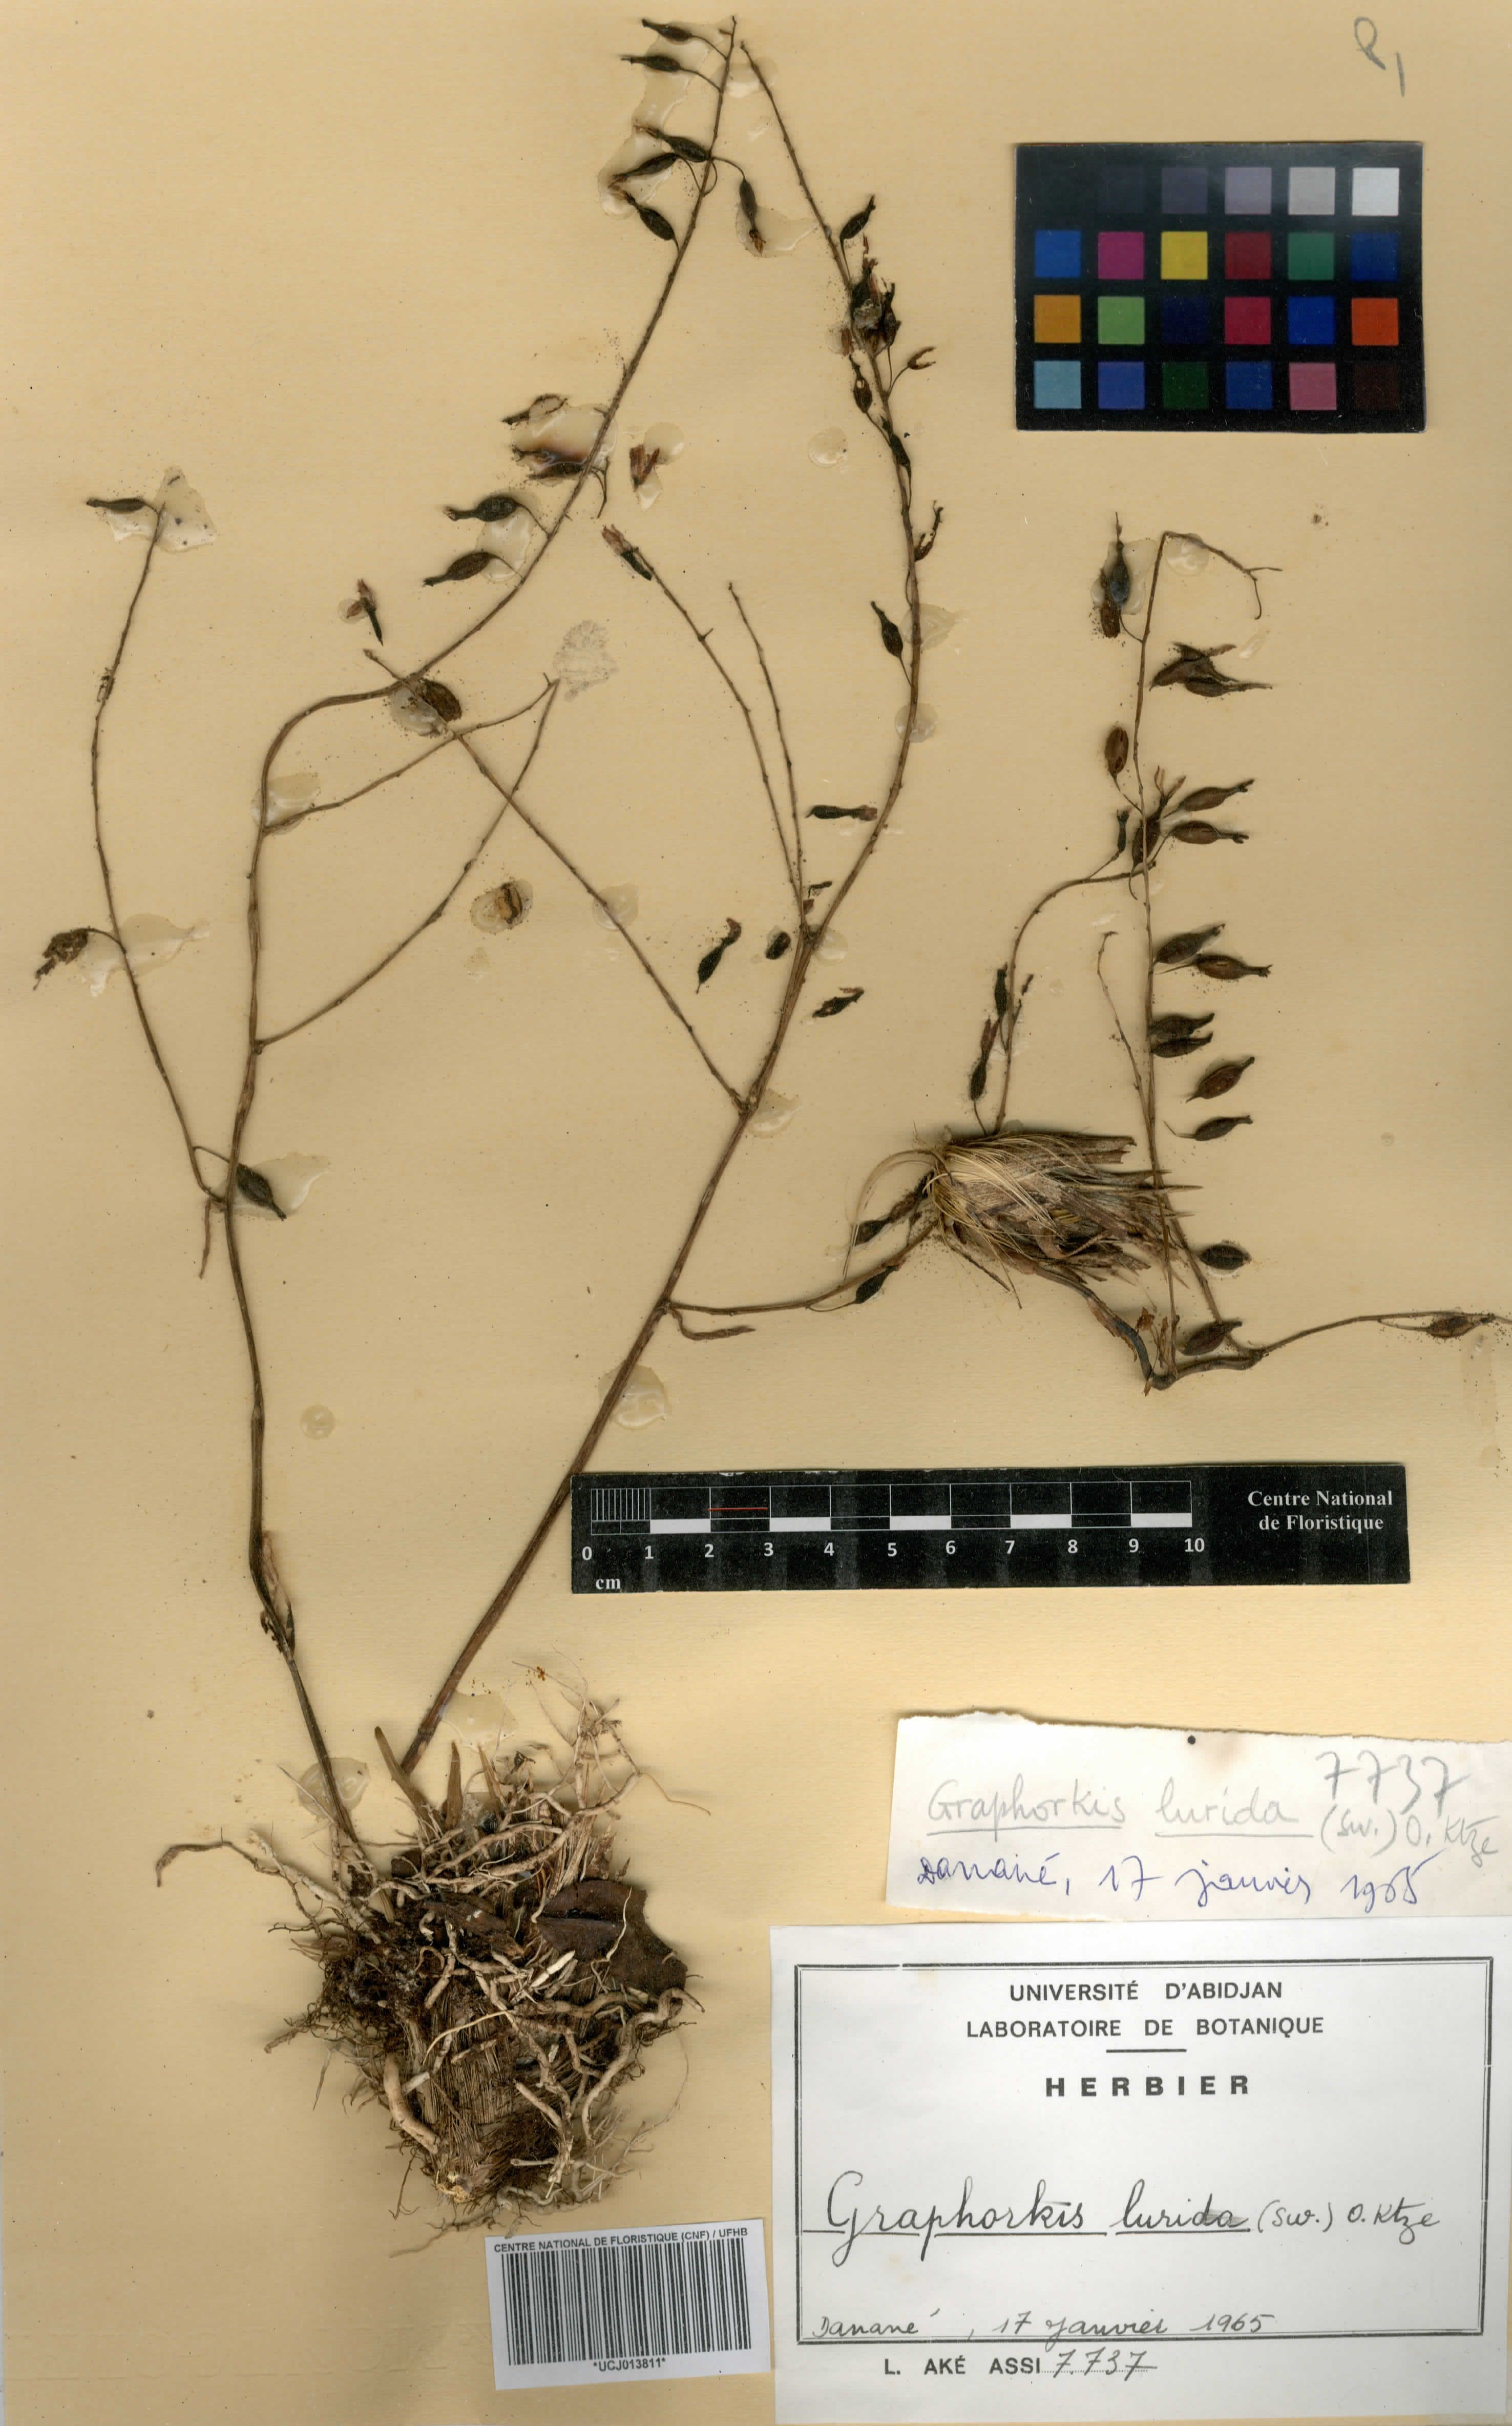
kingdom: Plantae
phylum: Tracheophyta
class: Liliopsida
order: Asparagales
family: Orchidaceae
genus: Graphorkis
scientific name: Graphorkis lurida
